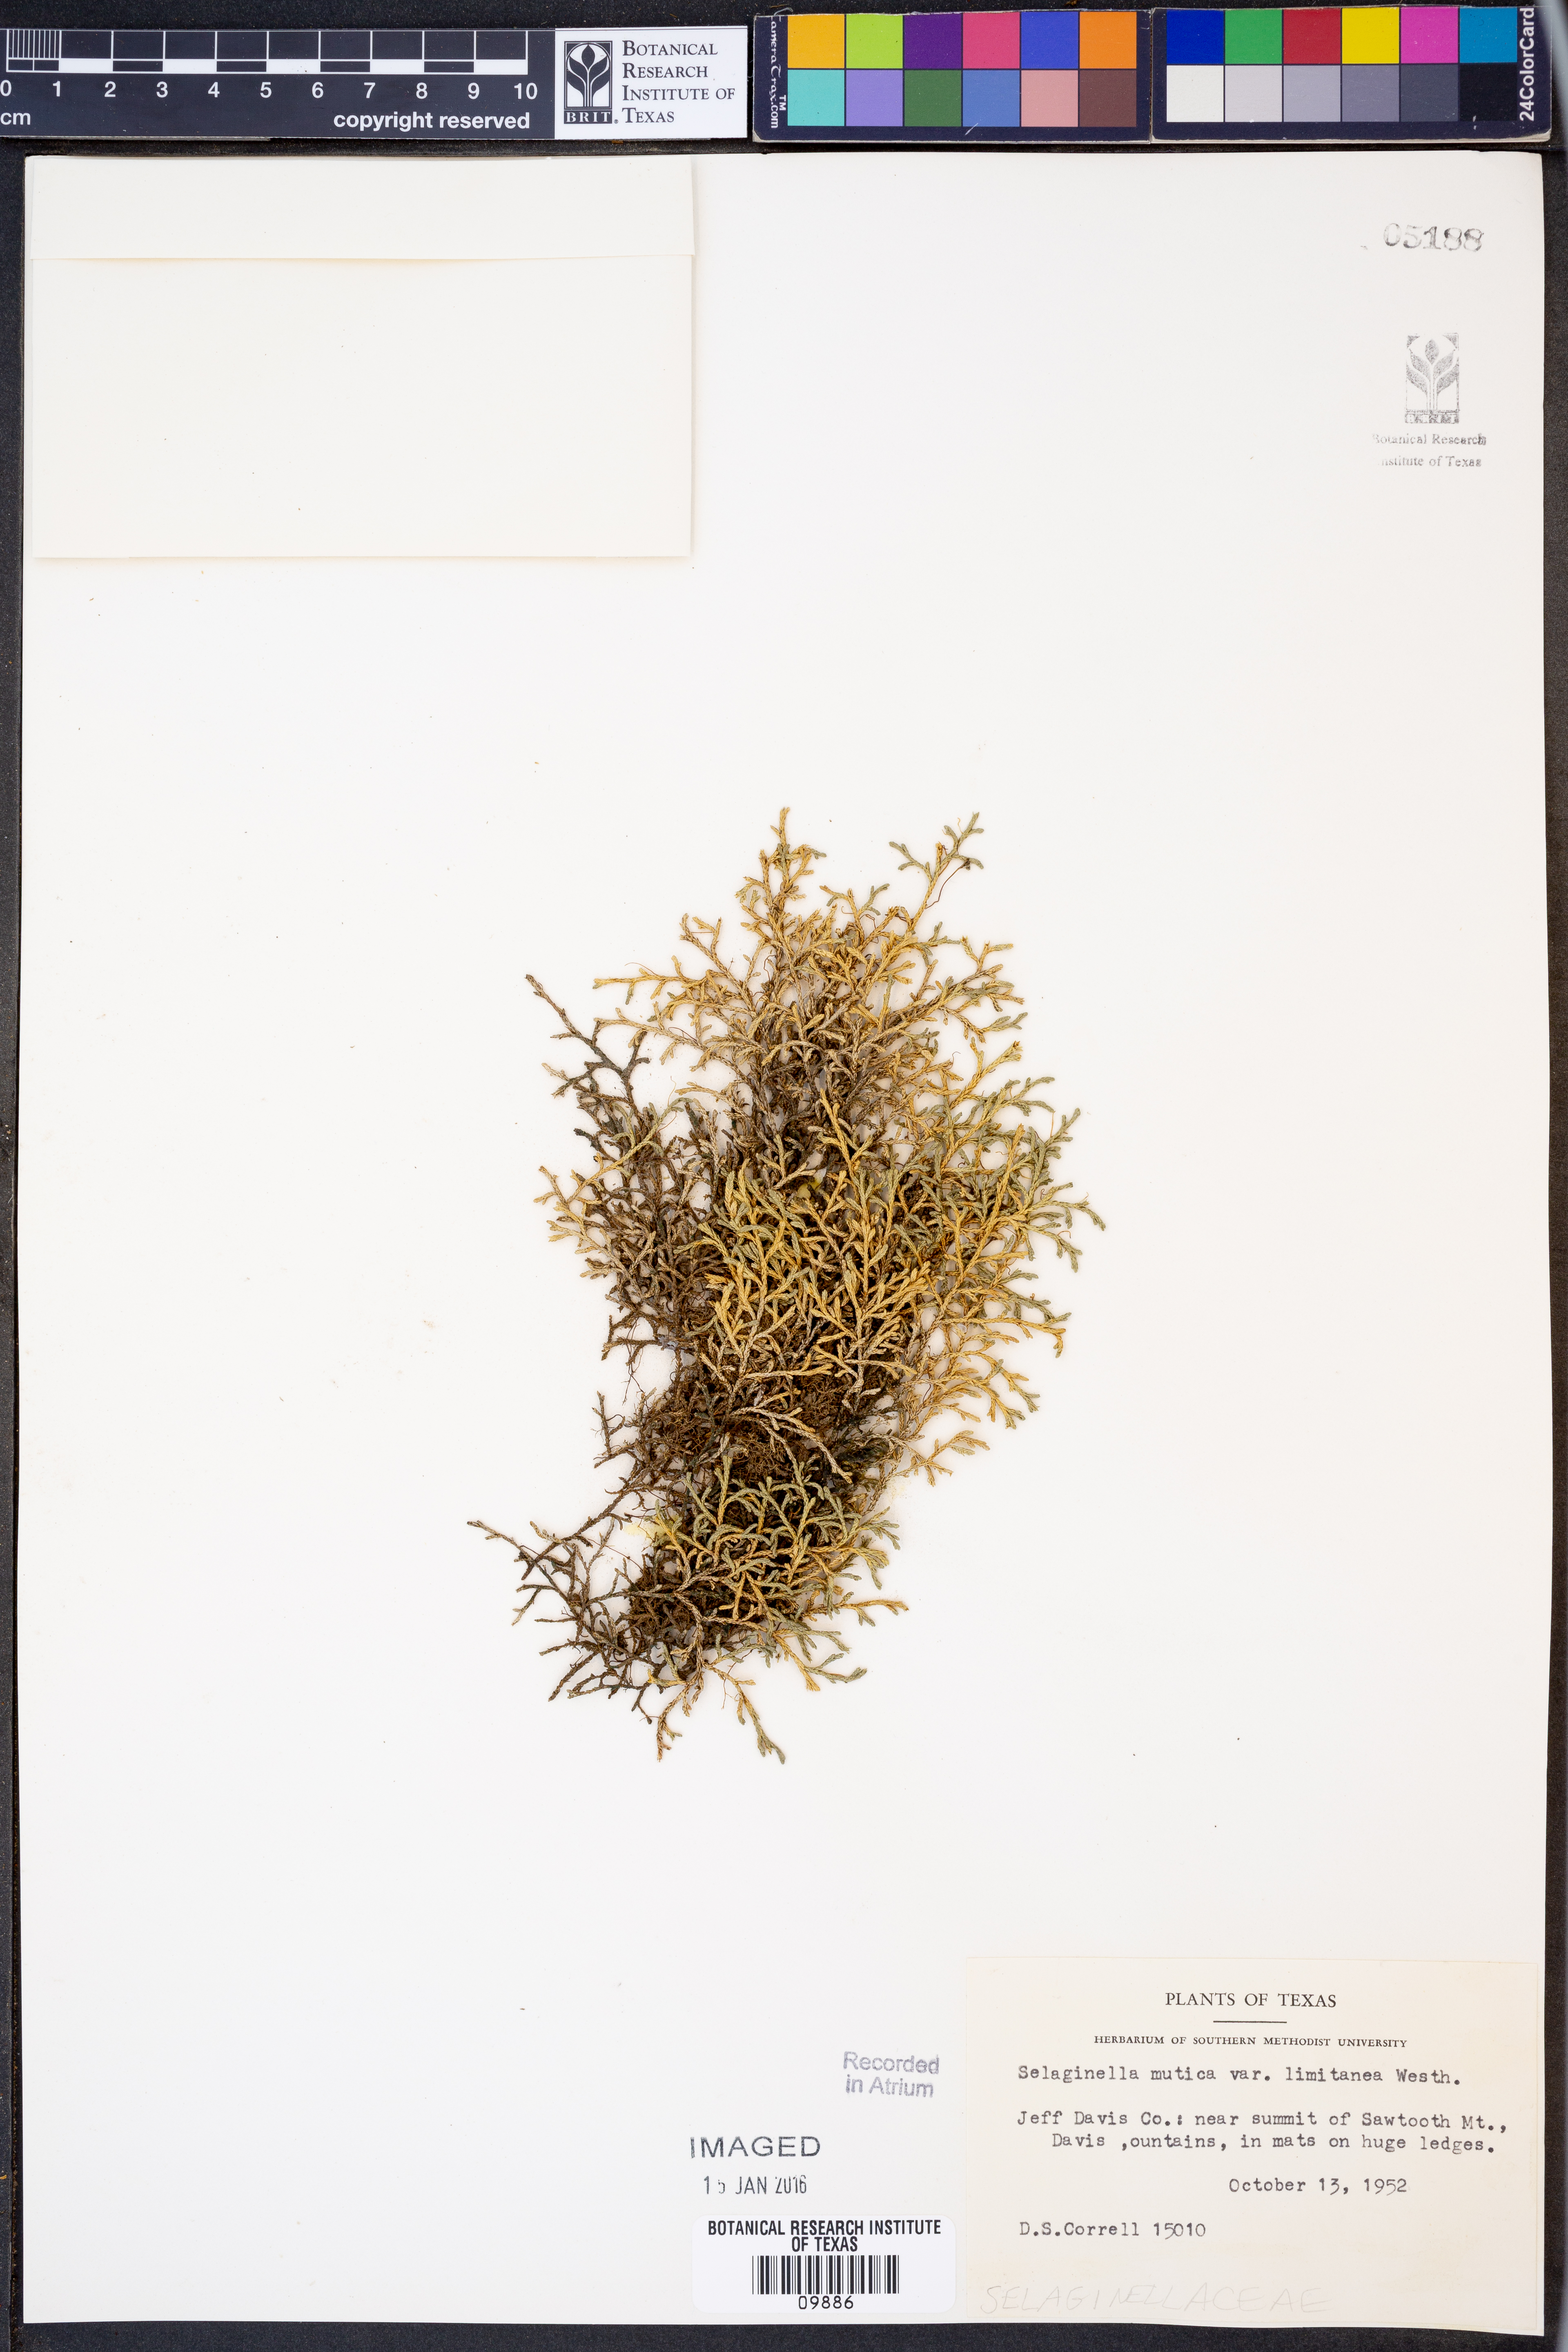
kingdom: Plantae
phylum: Tracheophyta
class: Lycopodiopsida
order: Selaginellales
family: Selaginellaceae
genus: Selaginella
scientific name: Selaginella mutica
